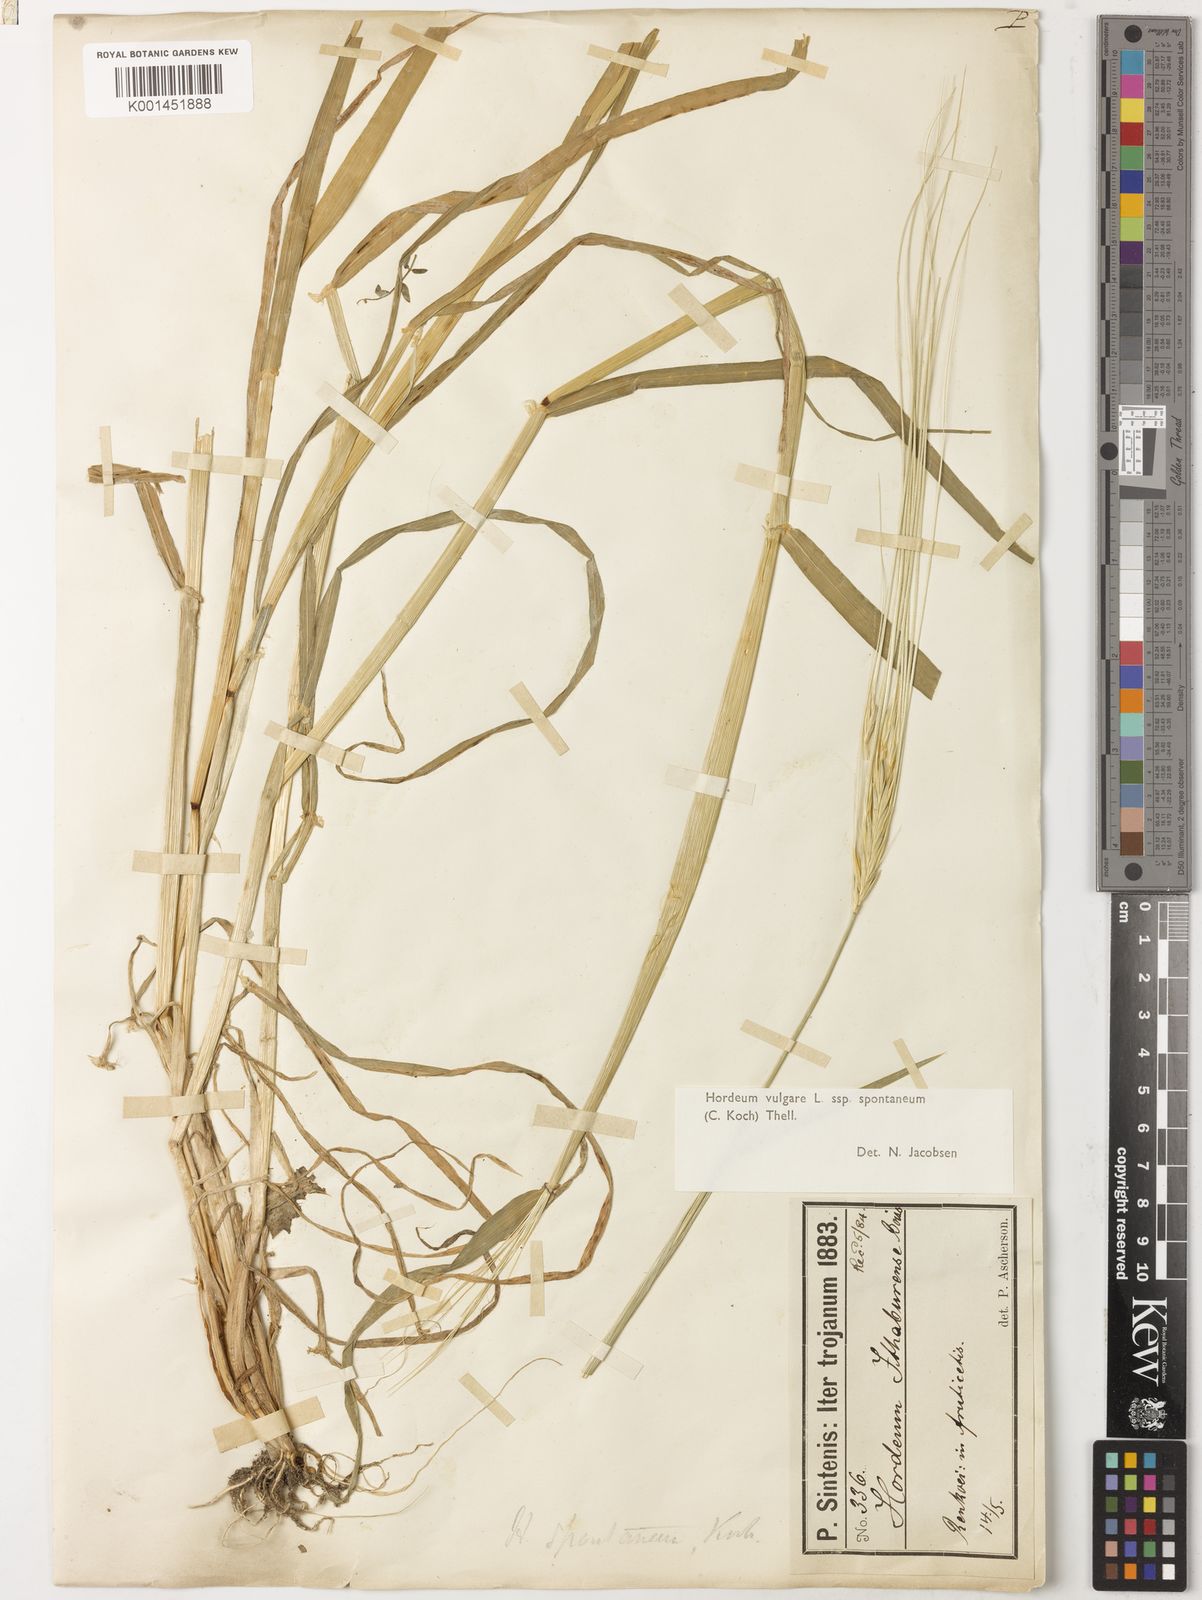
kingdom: Plantae
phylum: Tracheophyta
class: Liliopsida
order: Poales
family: Poaceae
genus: Hordeum
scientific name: Hordeum spontaneum
